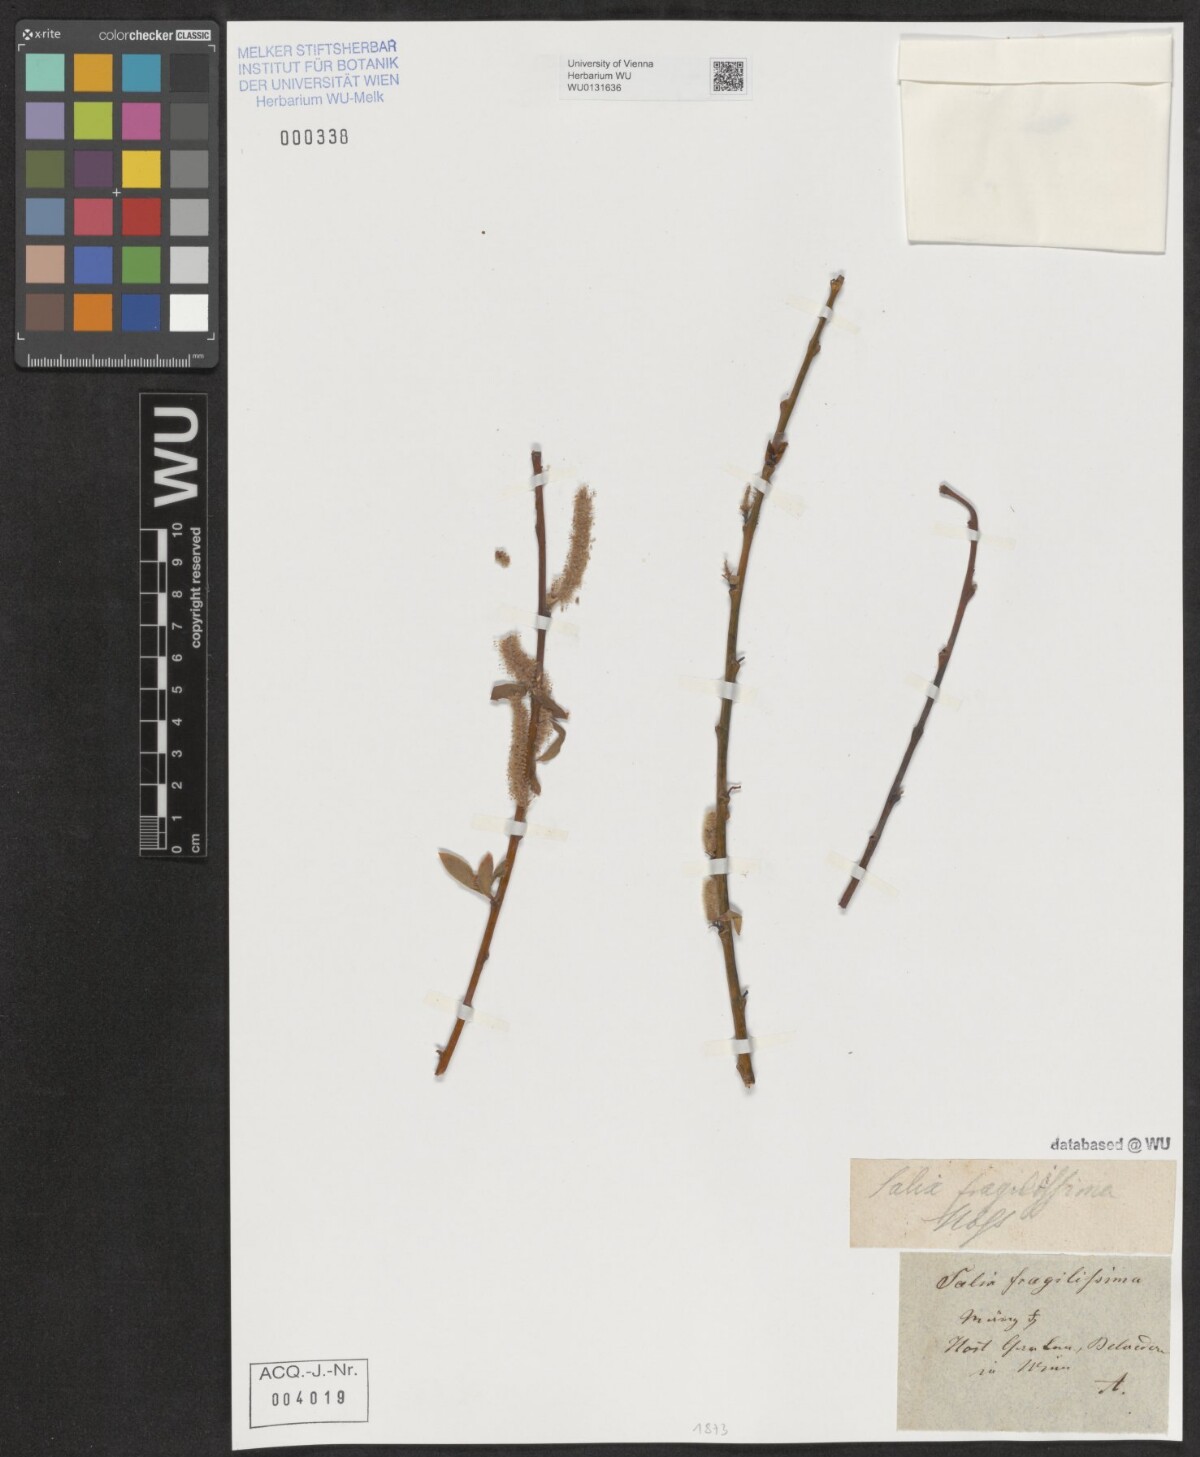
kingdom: Plantae
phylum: Tracheophyta
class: Magnoliopsida
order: Malpighiales
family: Salicaceae
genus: Salix
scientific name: Salix rubens
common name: Hybrid crack willow
